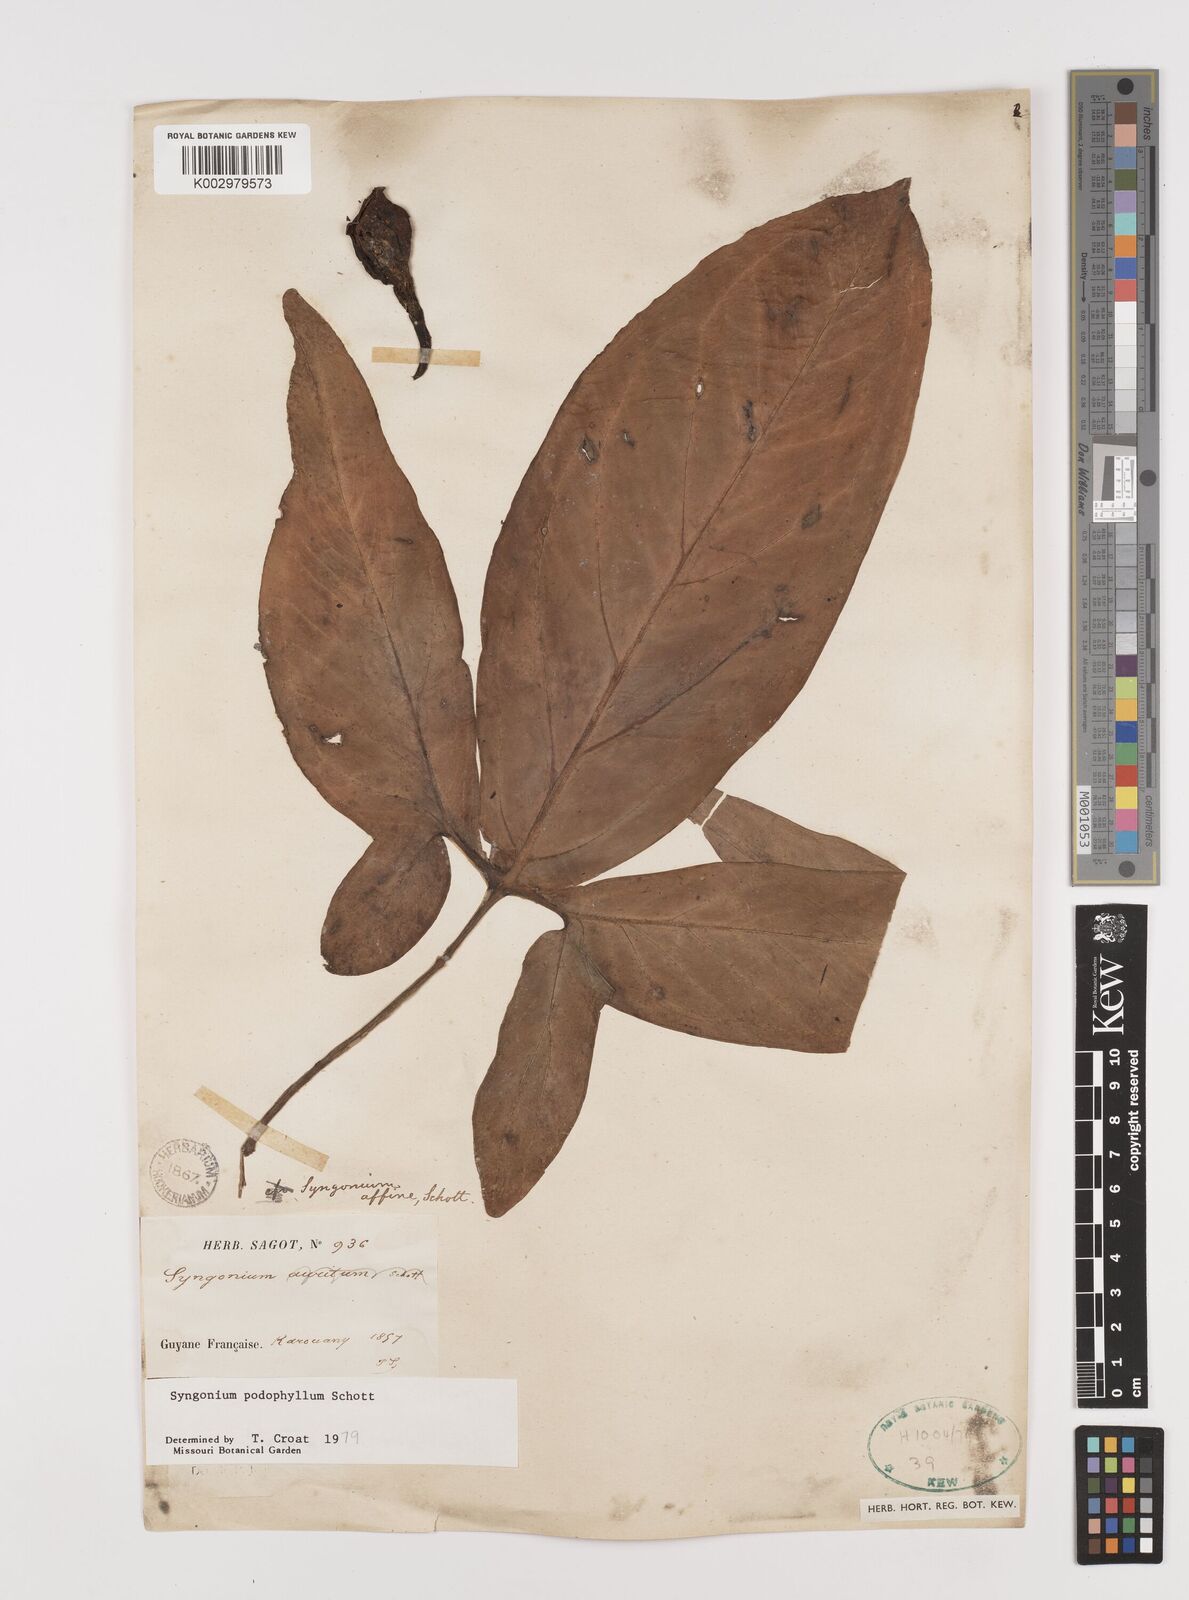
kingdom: Plantae
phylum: Tracheophyta
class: Liliopsida
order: Alismatales
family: Araceae
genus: Syngonium
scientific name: Syngonium podophyllum
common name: American evergreen
